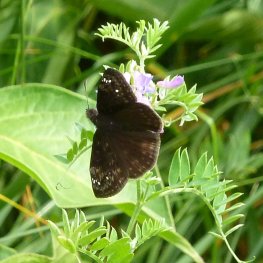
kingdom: Animalia
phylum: Arthropoda
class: Insecta
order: Lepidoptera
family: Hesperiidae
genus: Gesta
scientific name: Gesta
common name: Wild Indigo Duskywing
